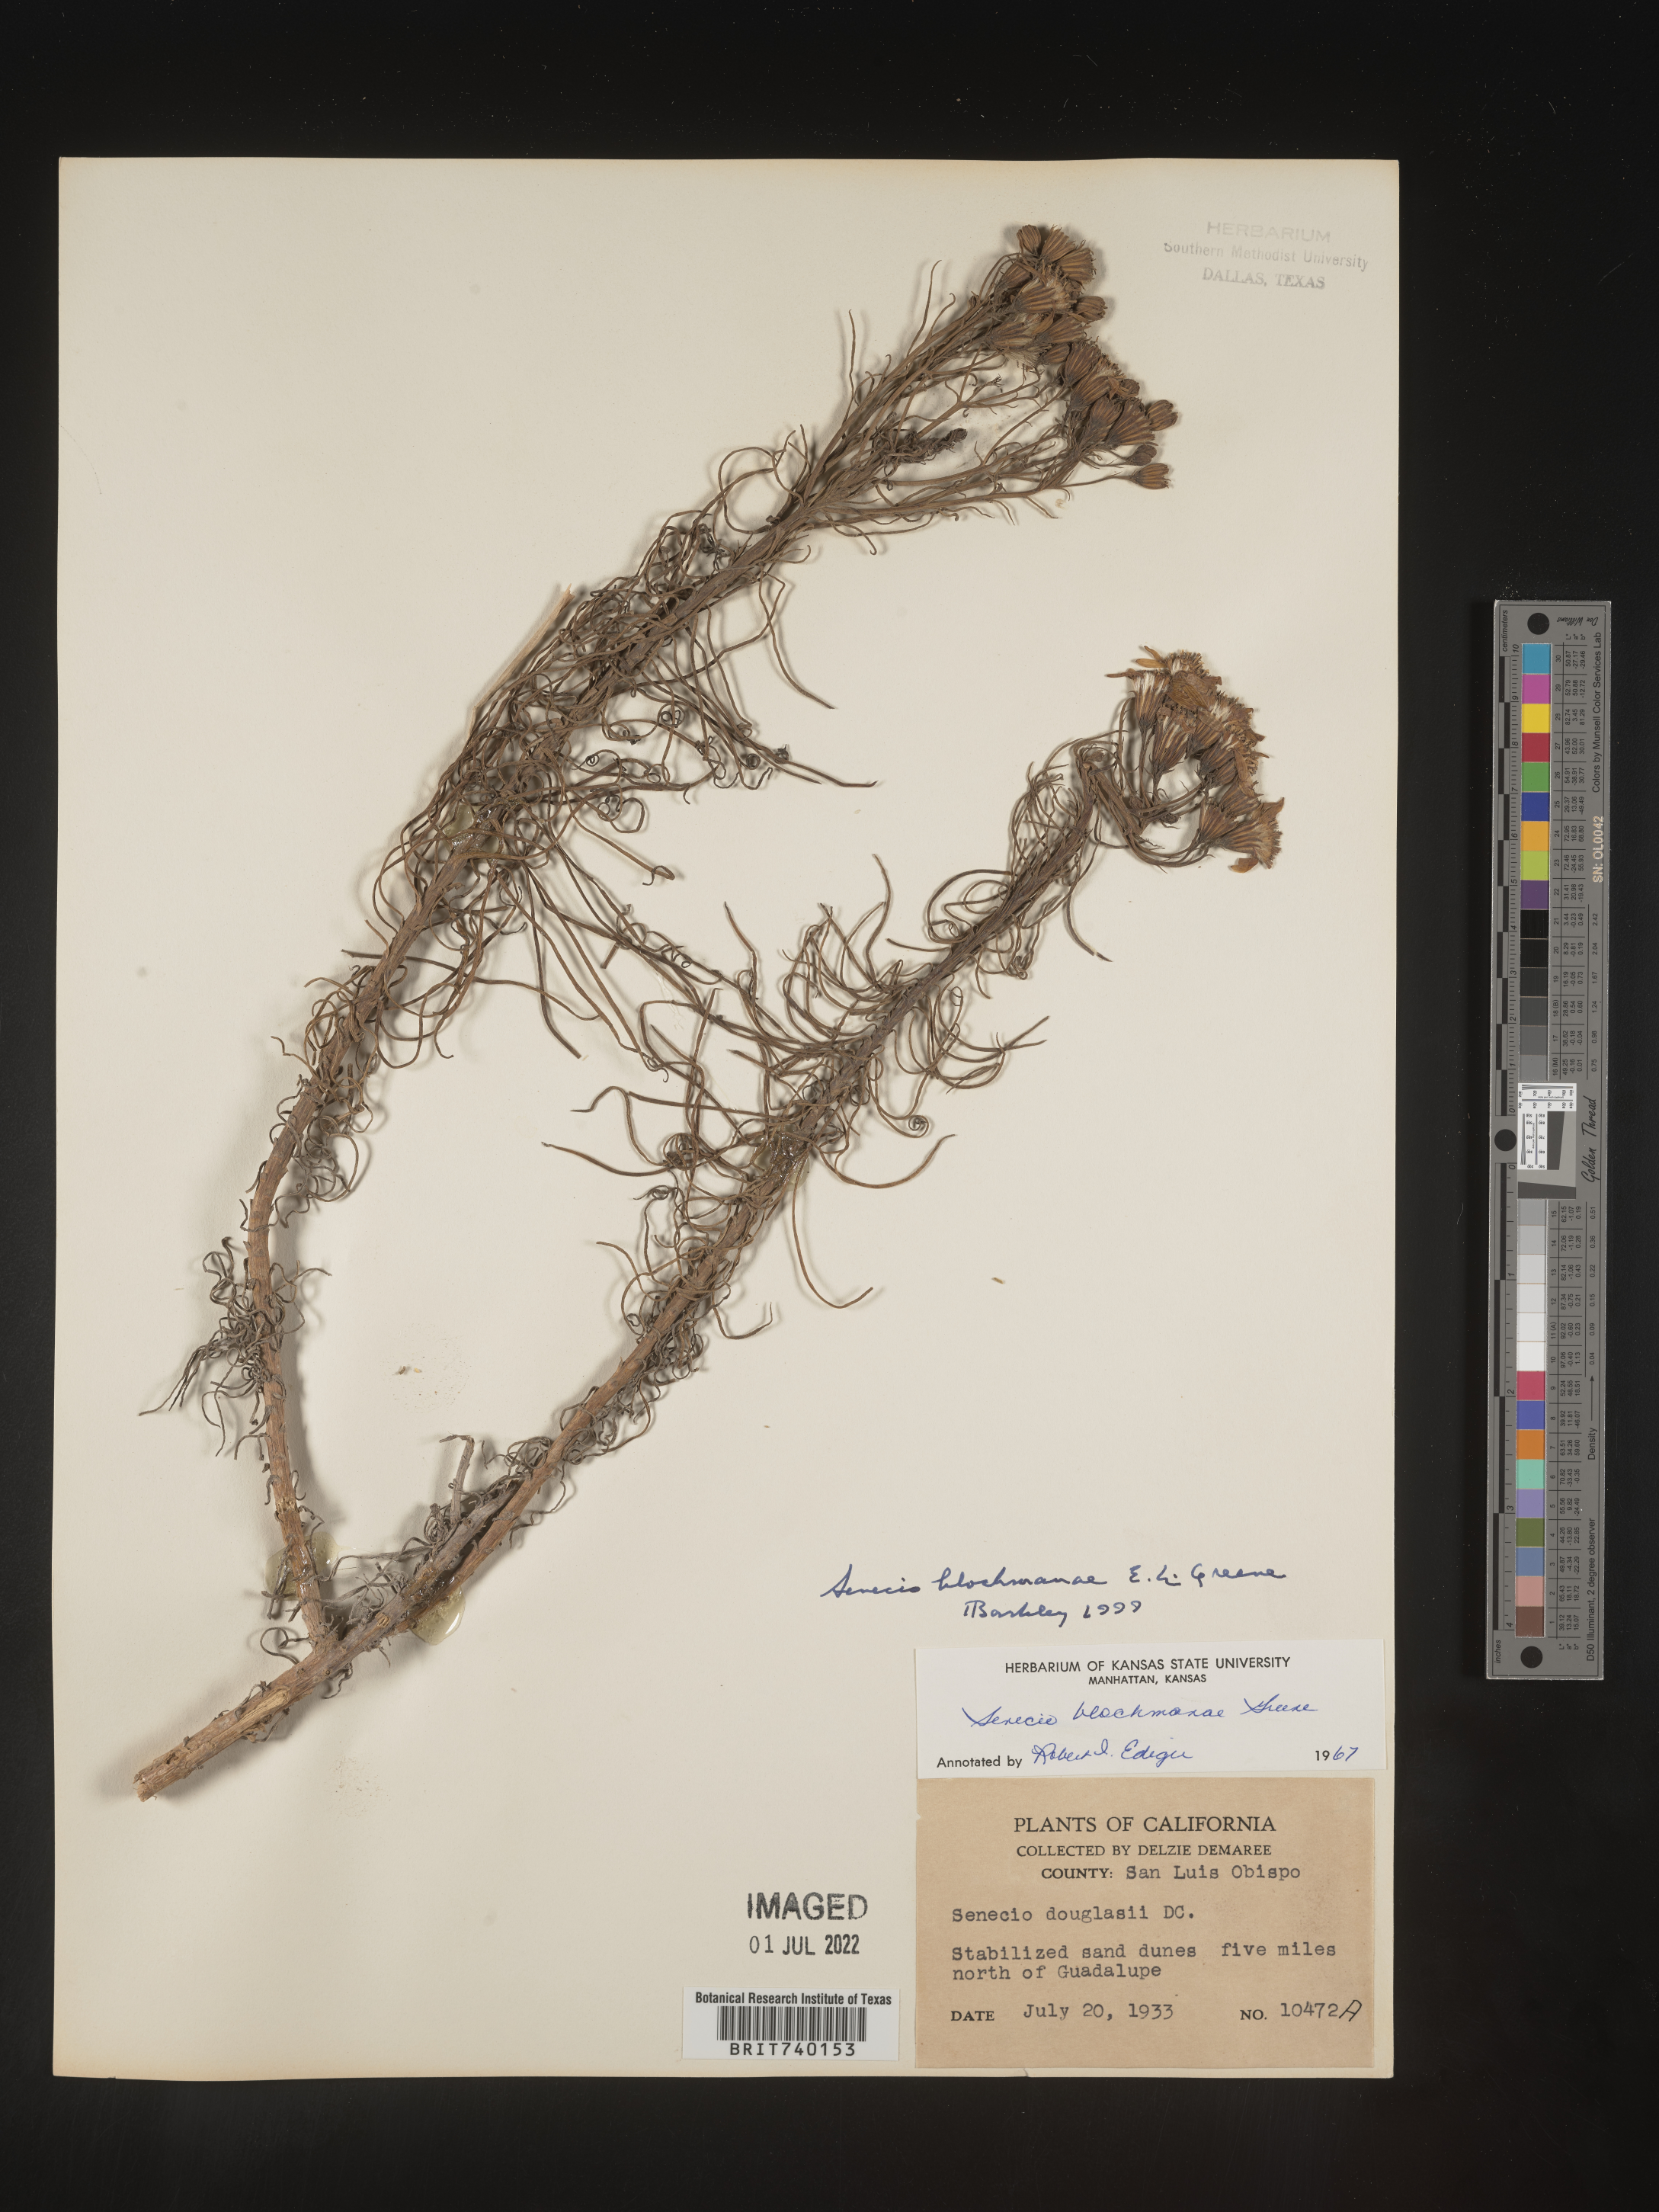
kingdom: Plantae
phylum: Tracheophyta
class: Magnoliopsida
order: Asterales
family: Asteraceae
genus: Senecio
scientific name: Senecio blochmanae
